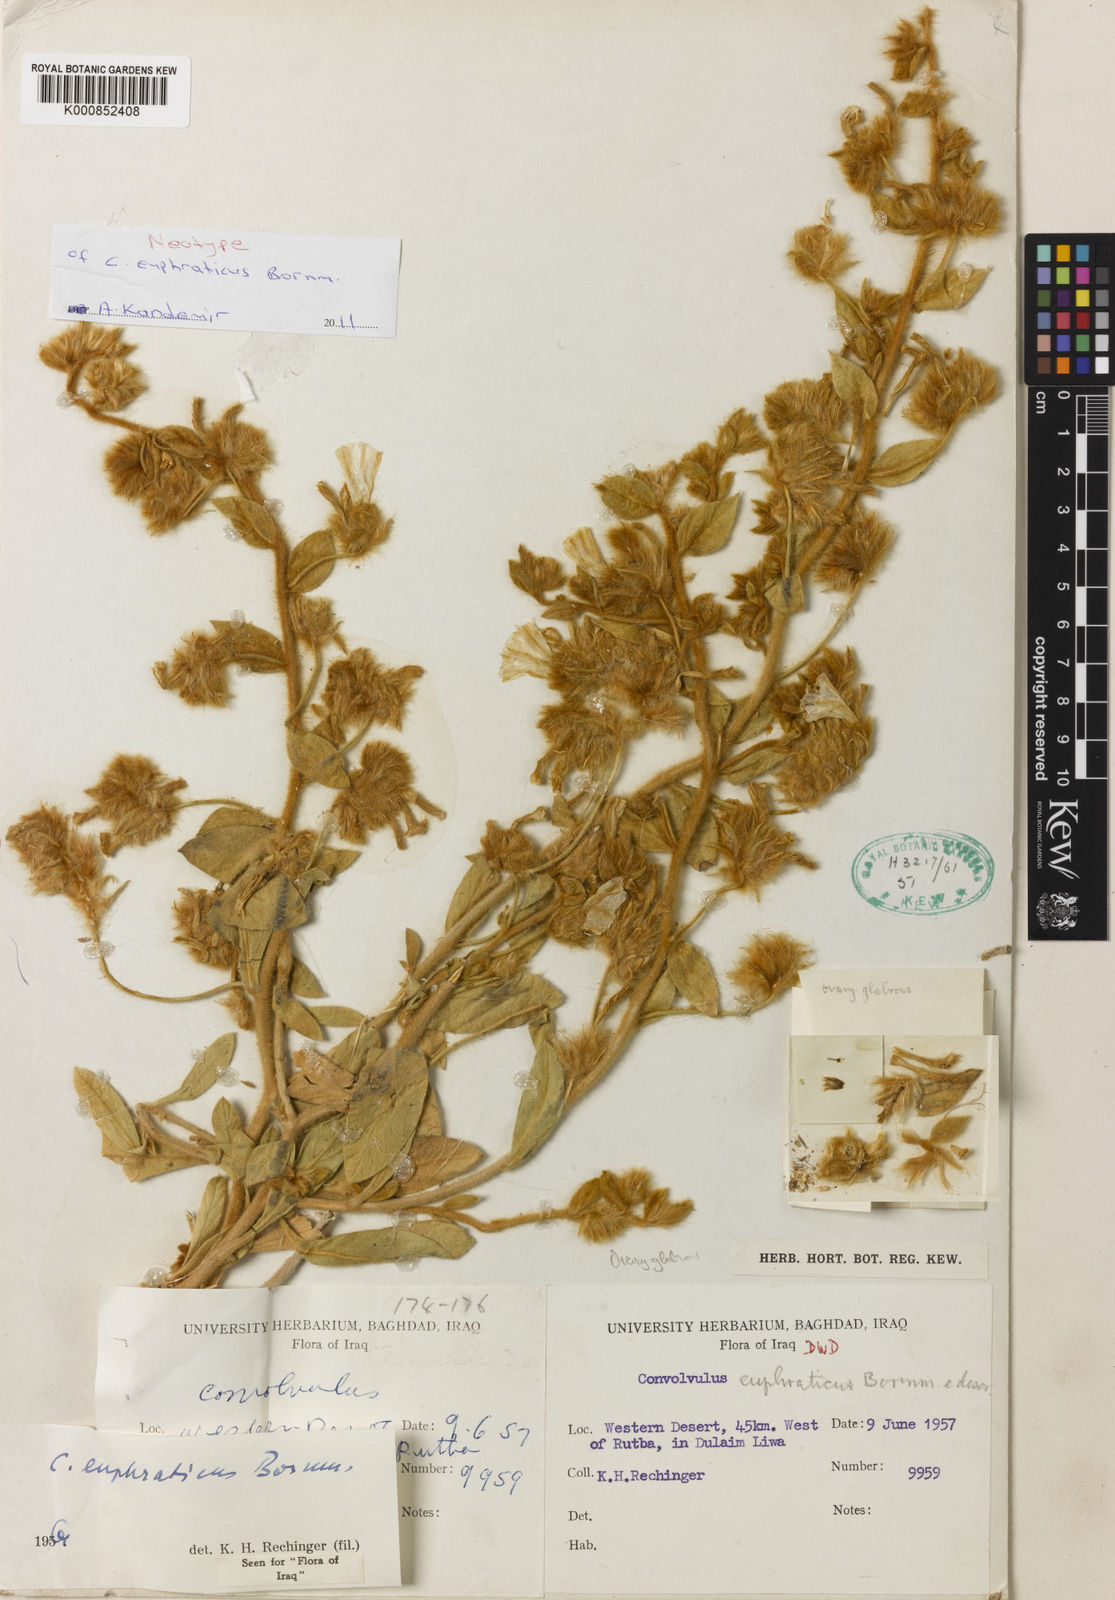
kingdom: Plantae
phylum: Tracheophyta
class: Magnoliopsida
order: Solanales
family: Convolvulaceae
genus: Convolvulus
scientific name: Convolvulus euphraticus
